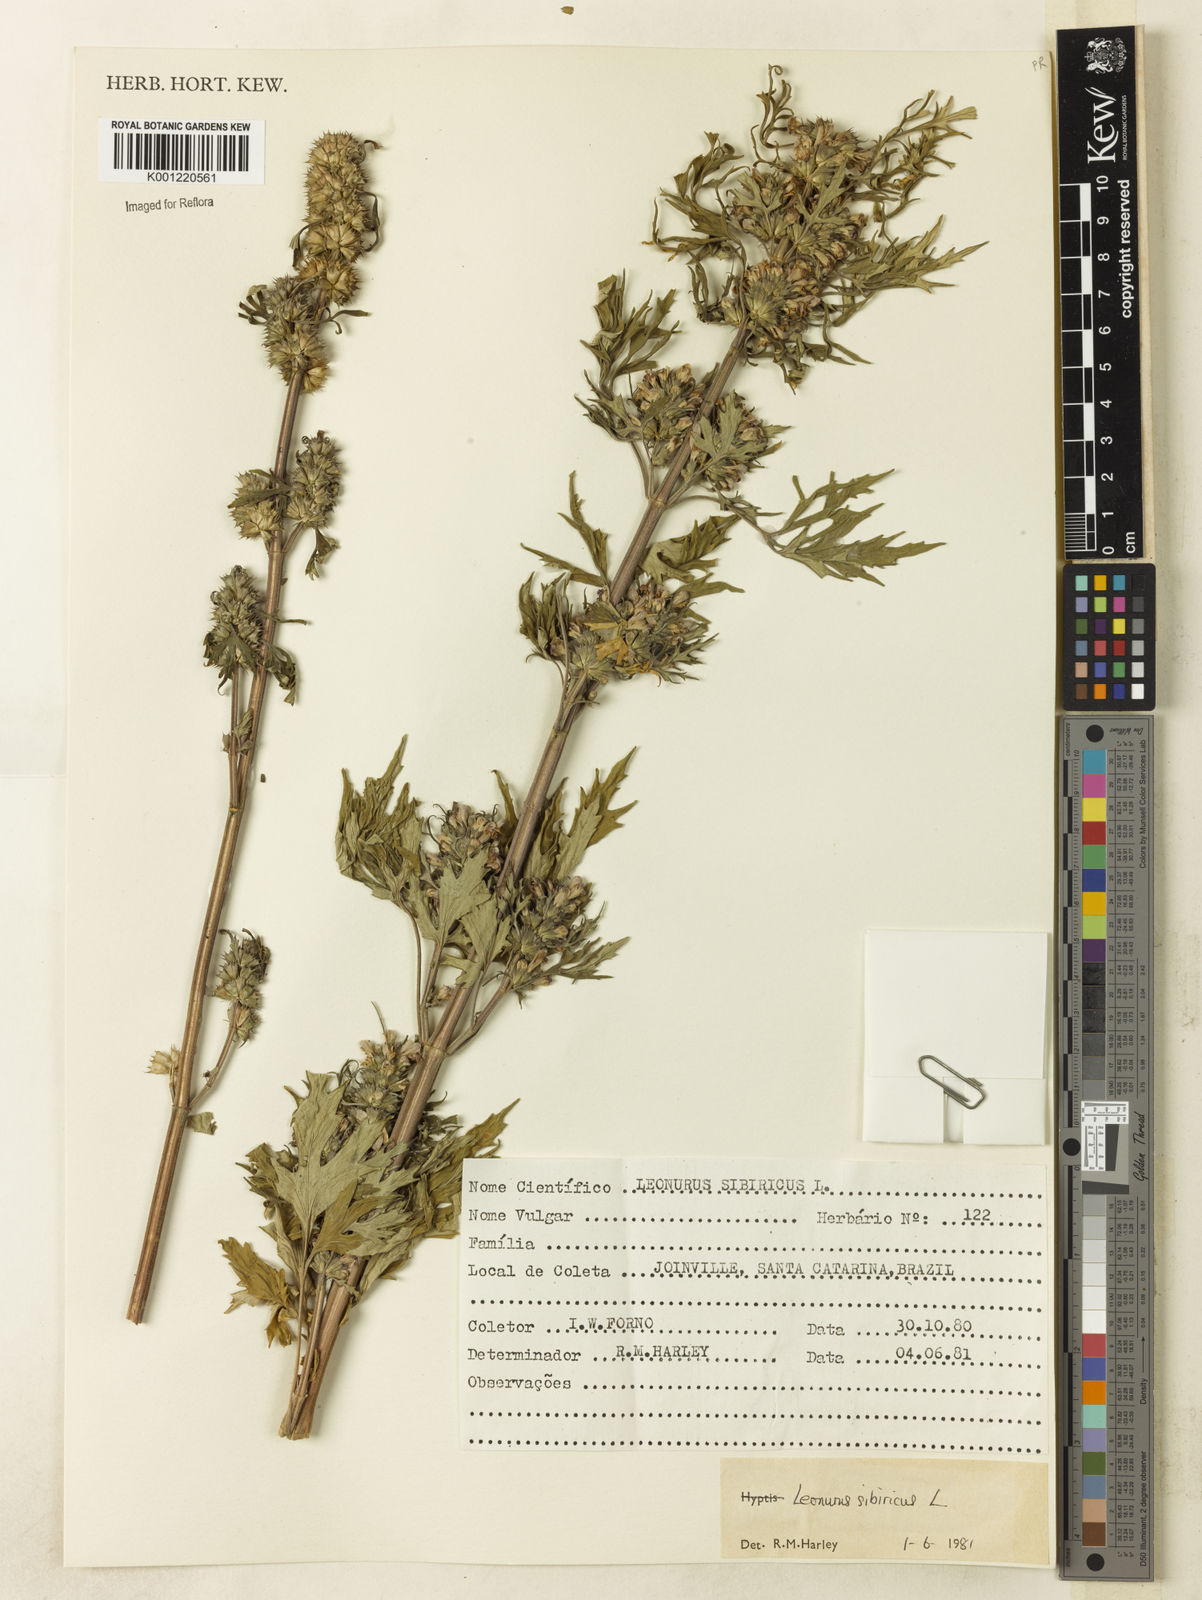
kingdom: Plantae
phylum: Tracheophyta
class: Magnoliopsida
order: Lamiales
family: Lamiaceae
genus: Leonurus
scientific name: Leonurus japonicus
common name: Honeyweed
